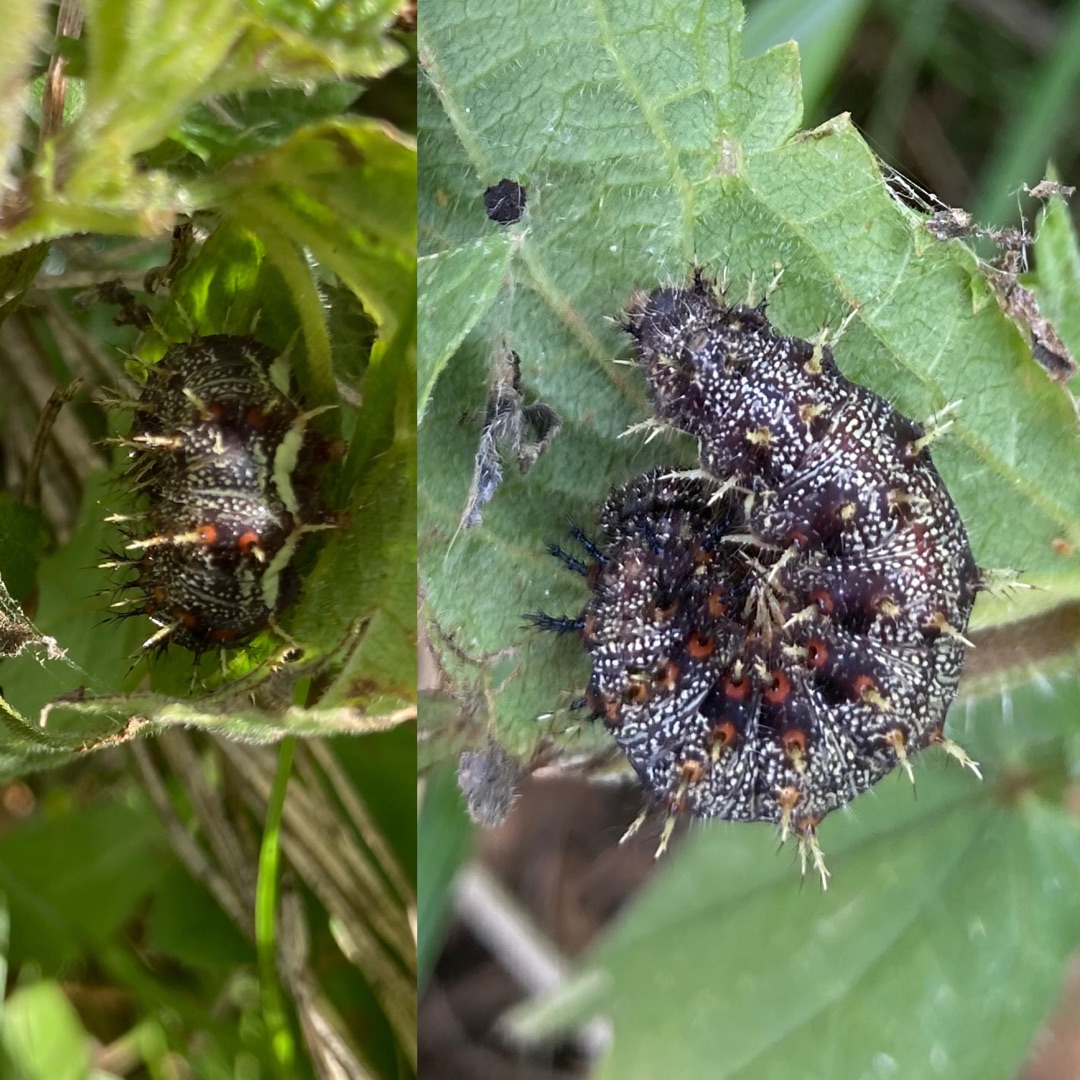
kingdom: Animalia
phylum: Arthropoda
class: Insecta
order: Lepidoptera
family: Nymphalidae
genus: Vanessa
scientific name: Vanessa atalanta
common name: Admiral
